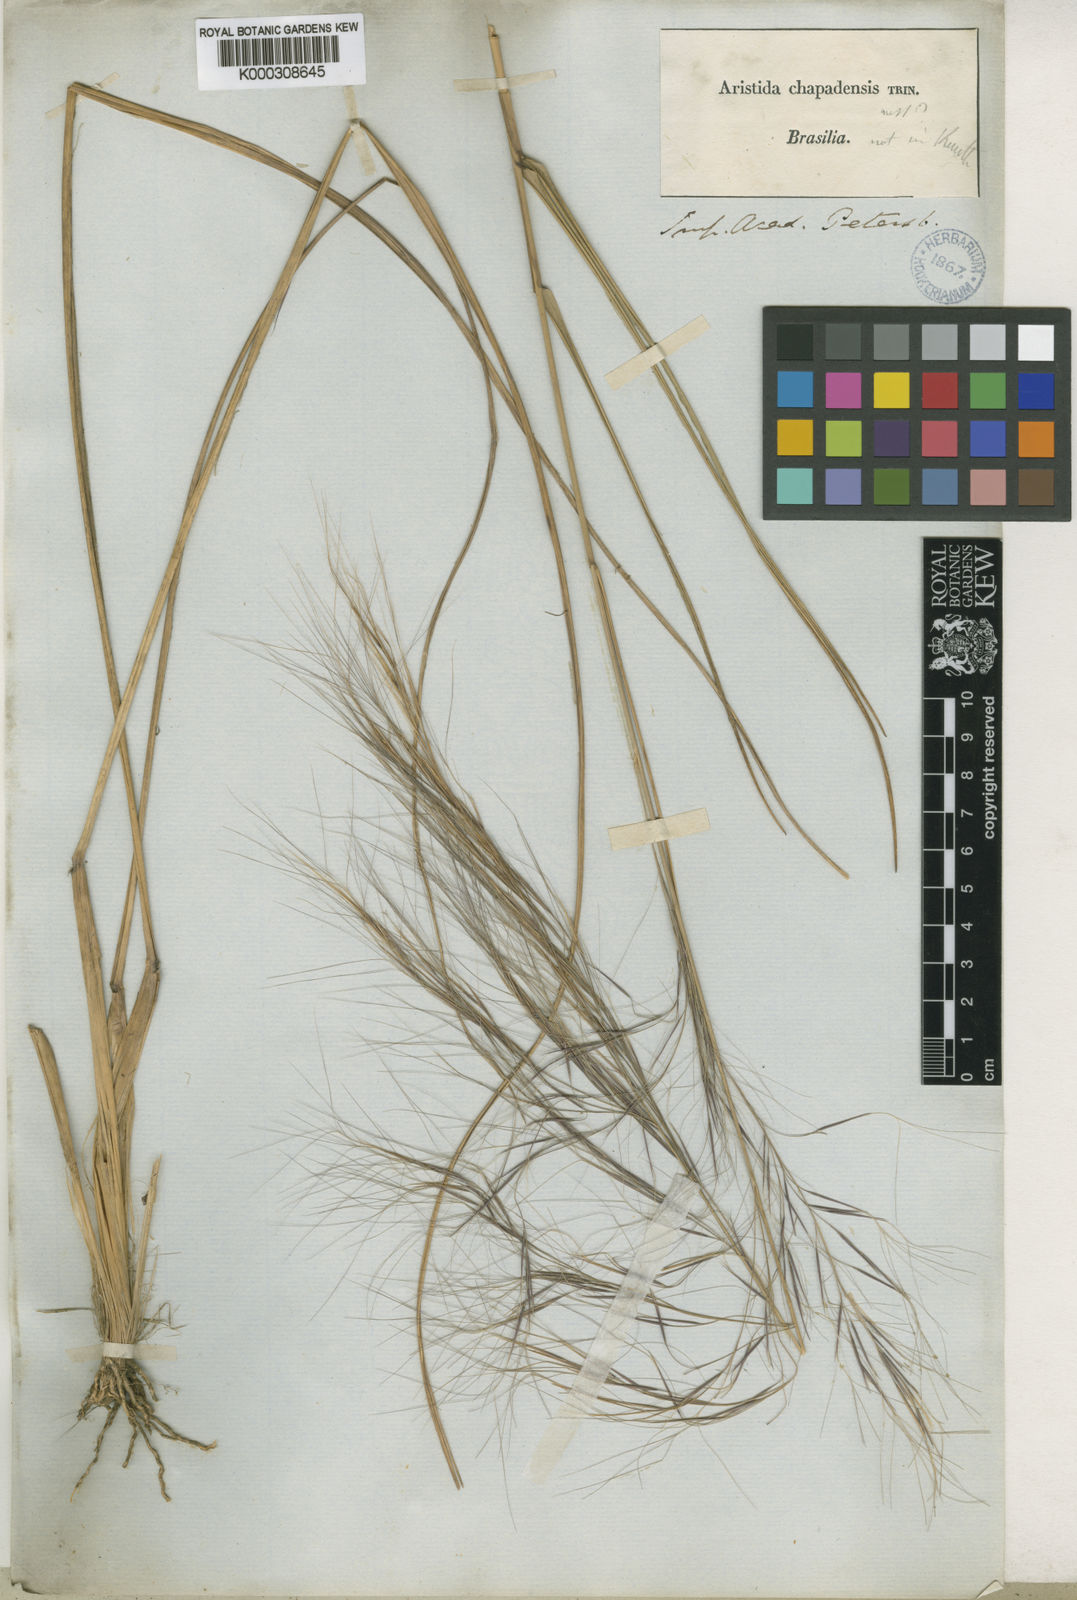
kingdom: Plantae
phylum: Tracheophyta
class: Liliopsida
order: Poales
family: Poaceae
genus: Aristida
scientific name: Aristida chapadensis
